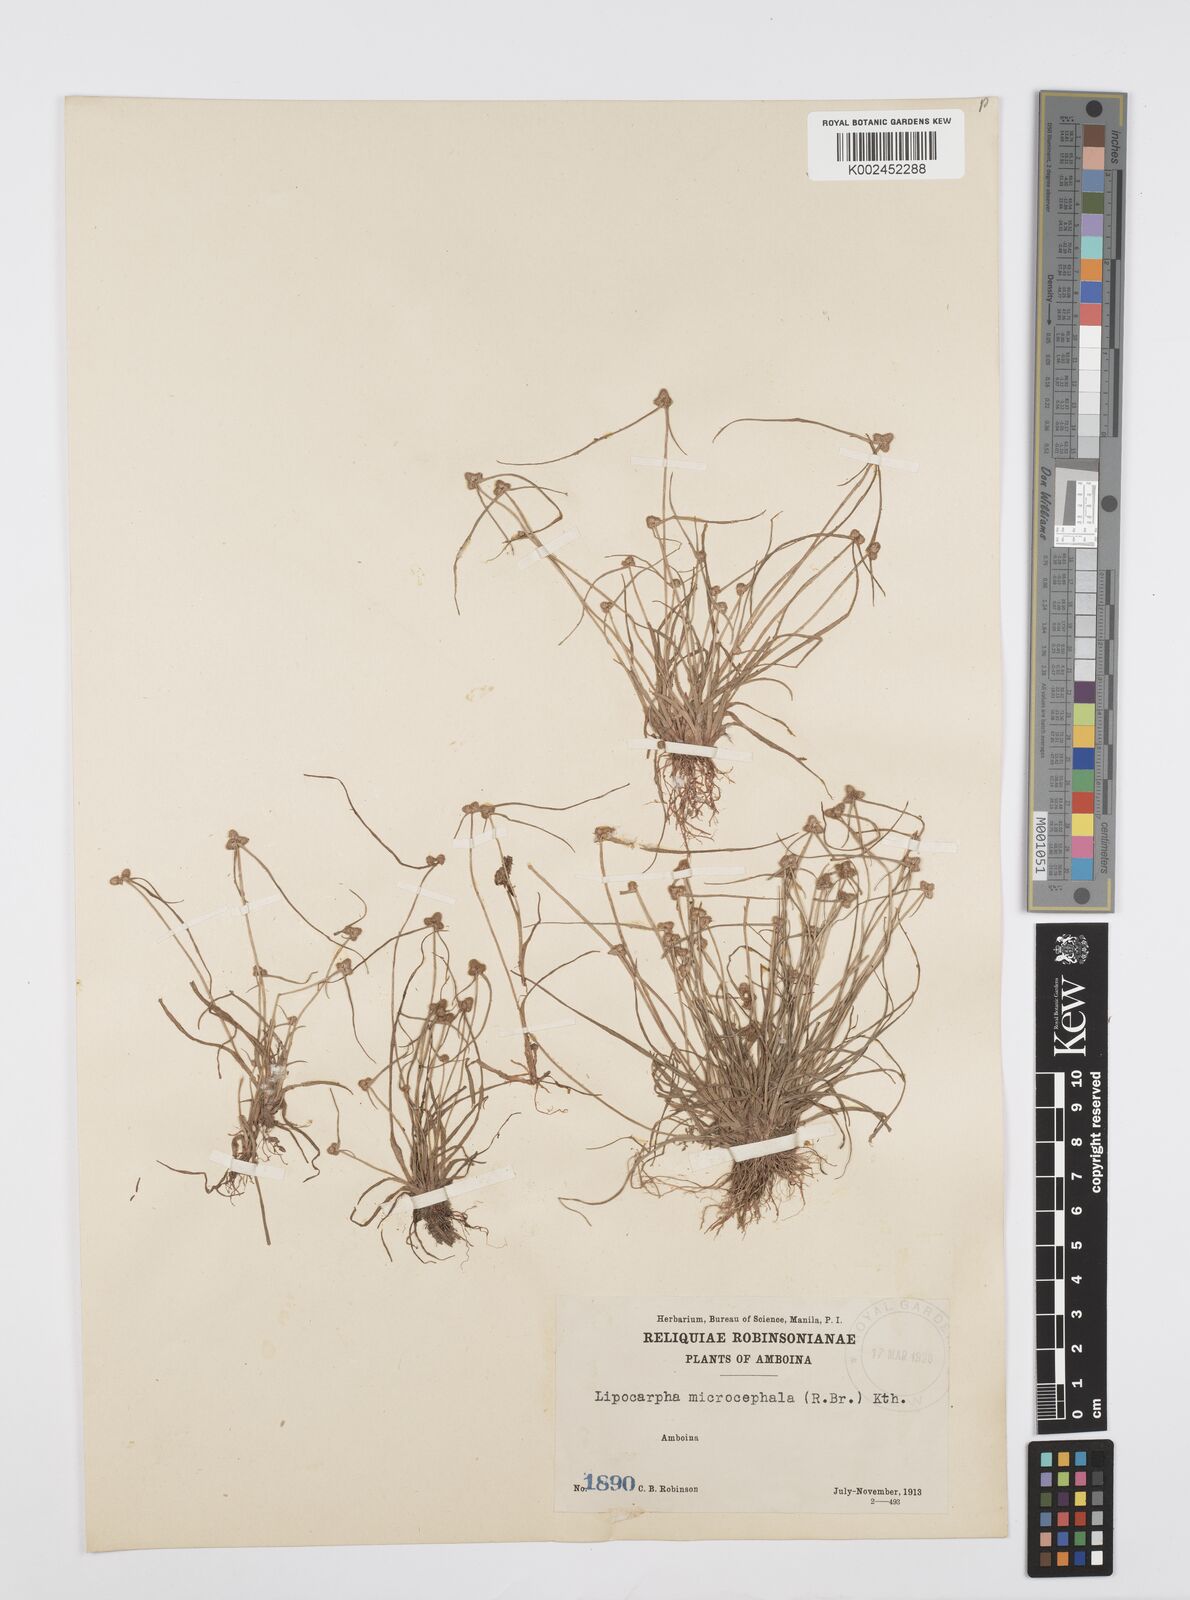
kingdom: Plantae
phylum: Tracheophyta
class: Liliopsida
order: Poales
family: Cyperaceae
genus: Cyperus
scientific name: Cyperus microcephalus
